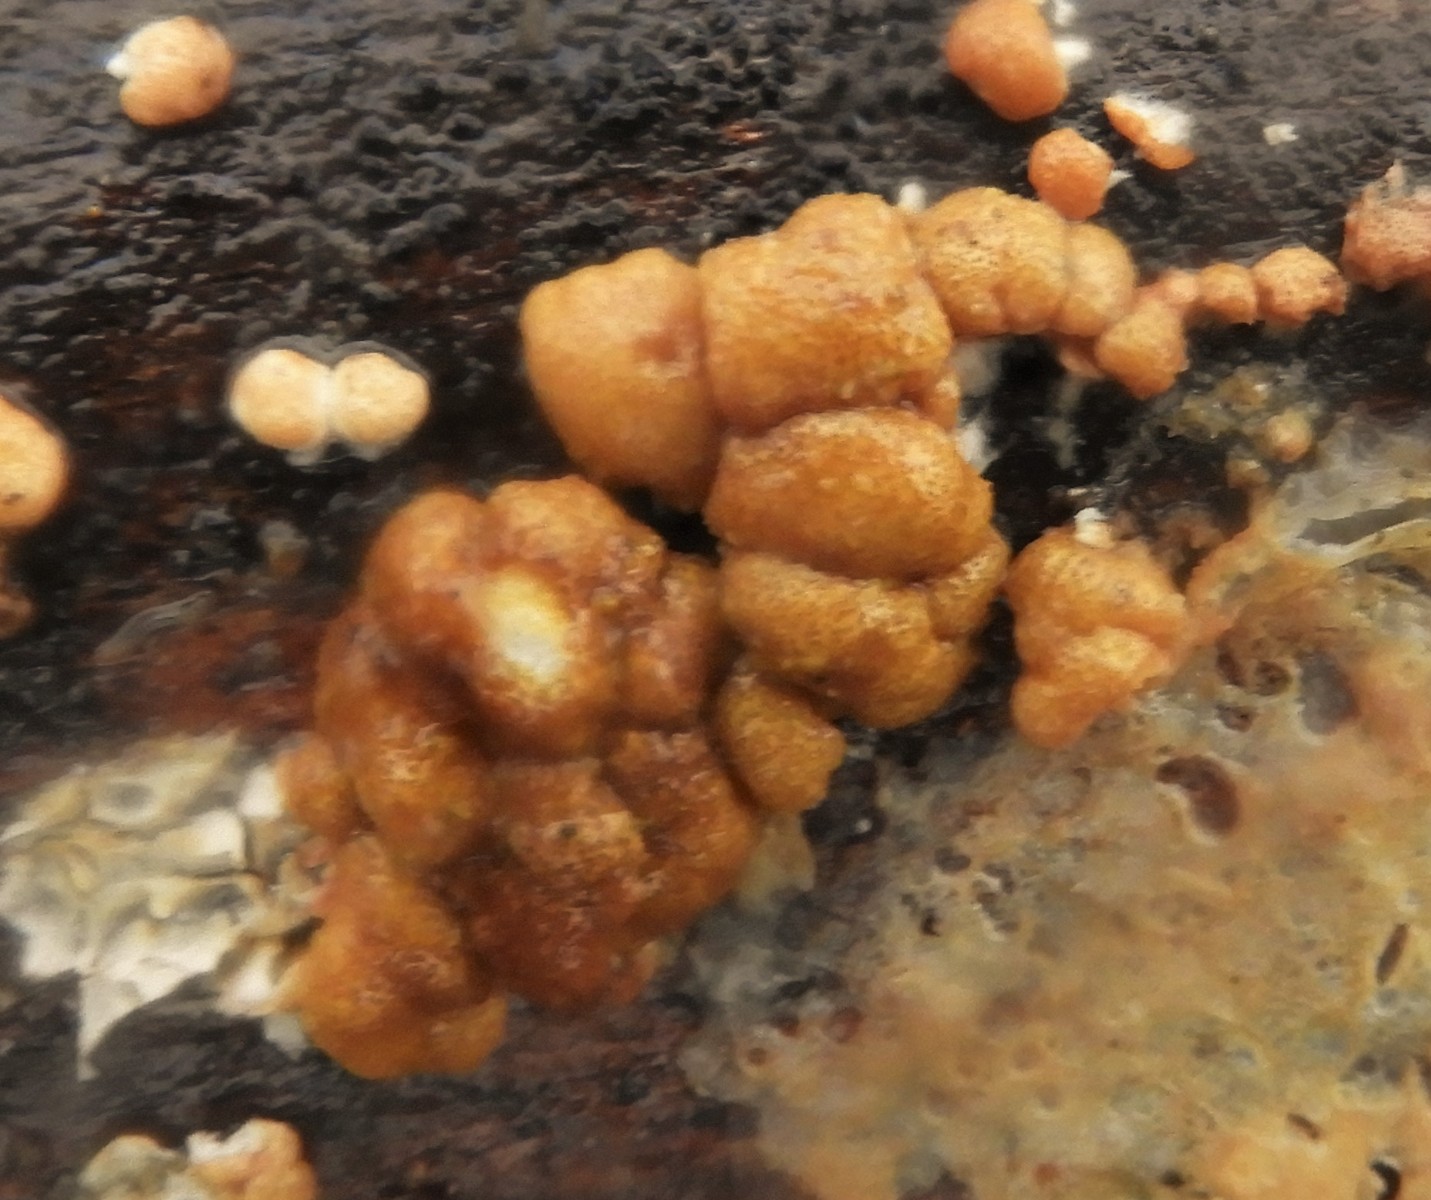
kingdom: Fungi
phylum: Ascomycota
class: Sordariomycetes
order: Hypocreales
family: Hypocreaceae
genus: Trichoderma
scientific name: Trichoderma europaeum
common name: rosabrun kødkerne
